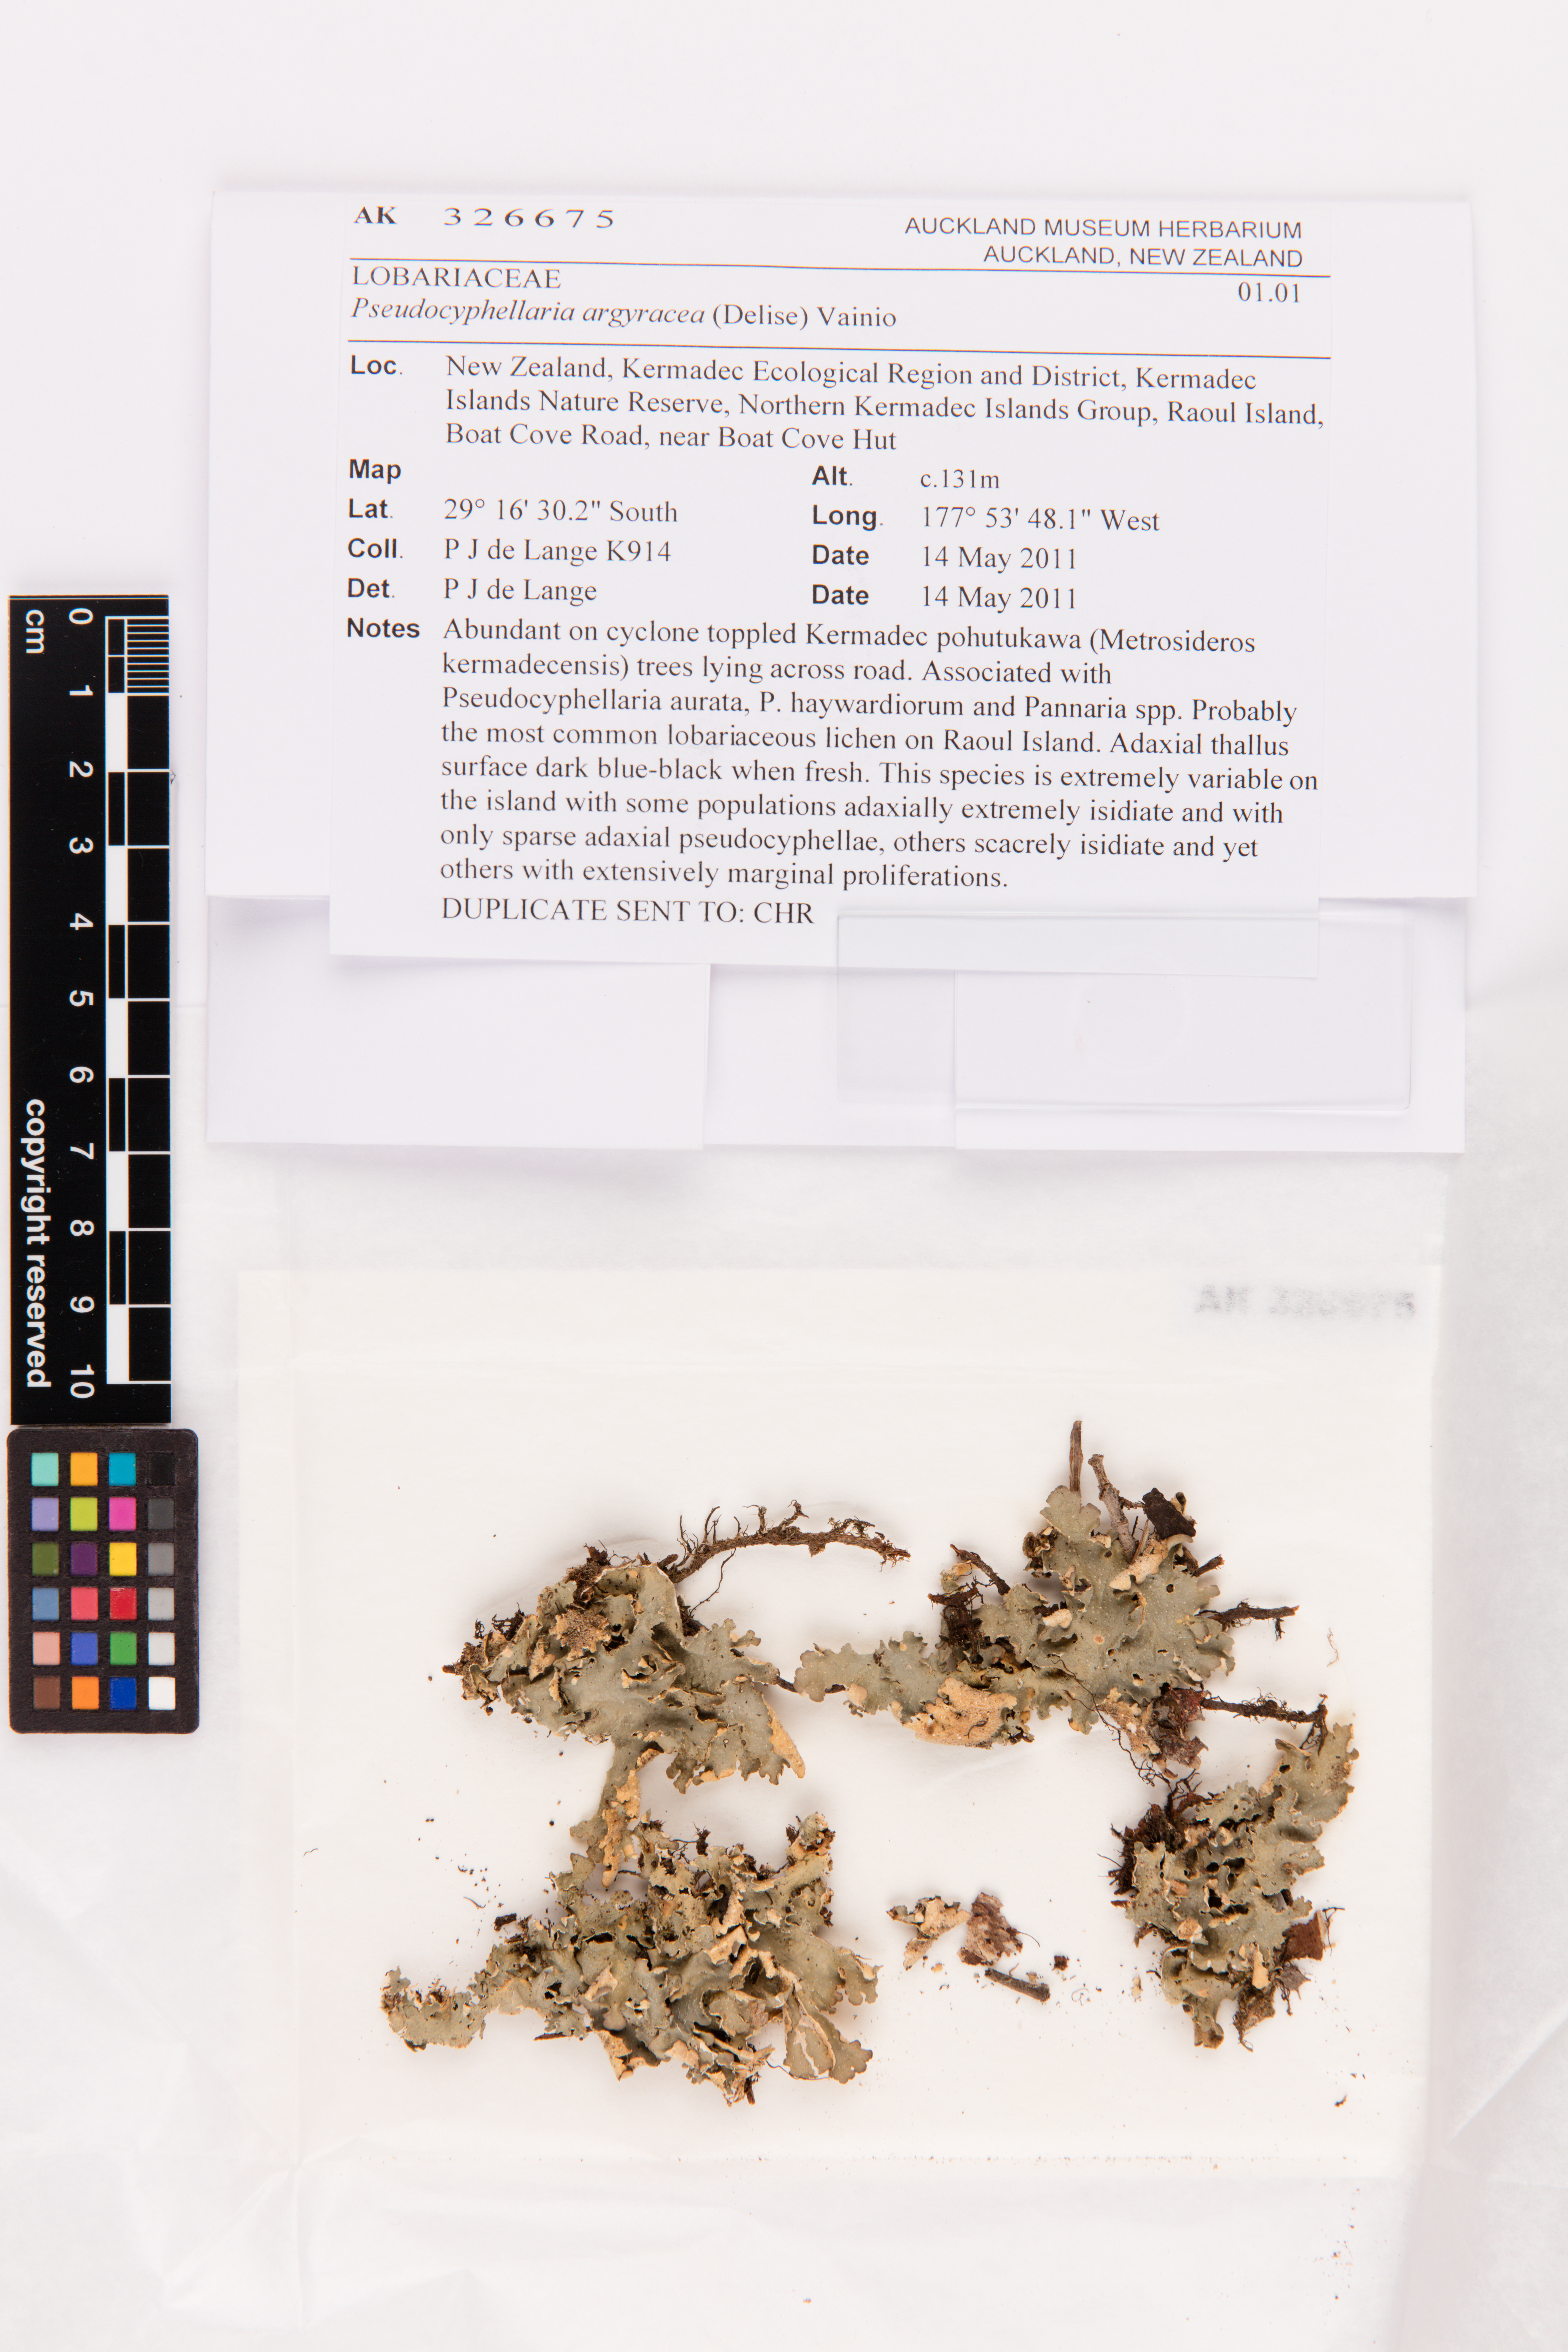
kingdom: Fungi
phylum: Ascomycota
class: Lecanoromycetes
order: Peltigerales
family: Lobariaceae
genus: Pseudocyphellaria
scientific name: Pseudocyphellaria argyracea
